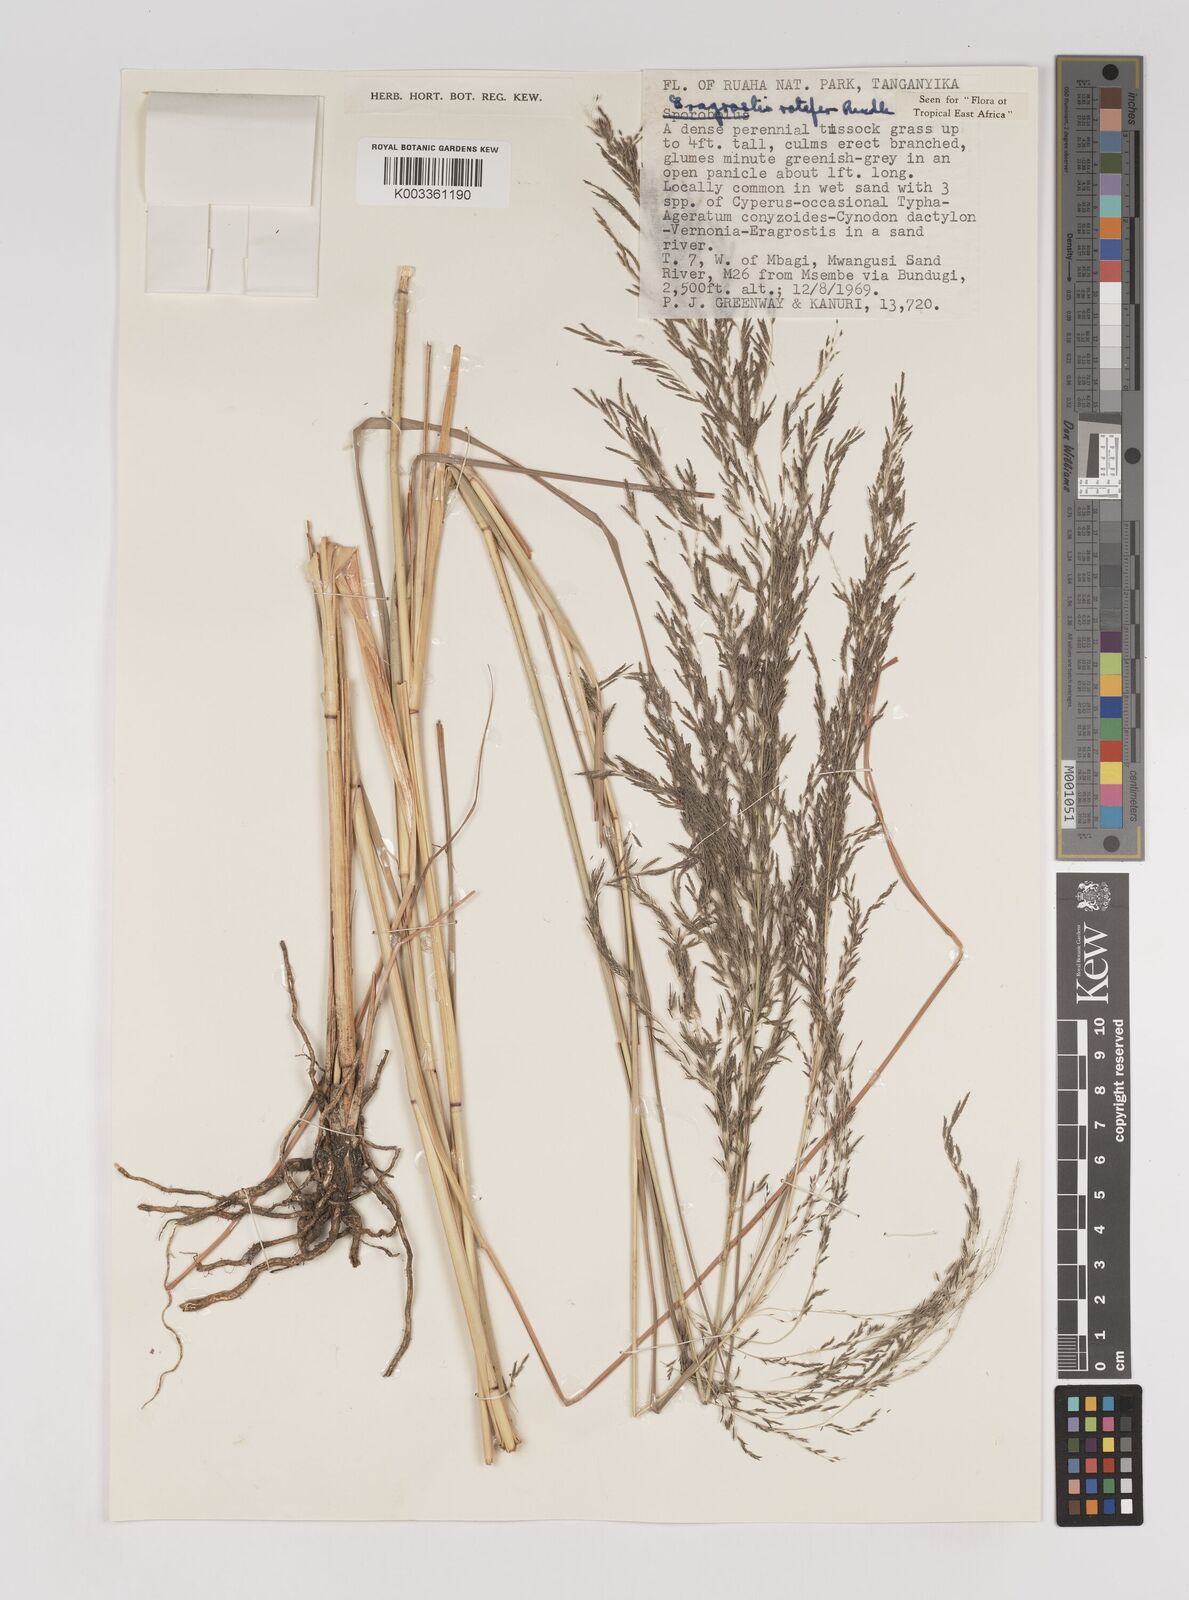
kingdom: Plantae
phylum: Tracheophyta
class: Liliopsida
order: Poales
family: Poaceae
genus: Eragrostis
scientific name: Eragrostis rotifer
